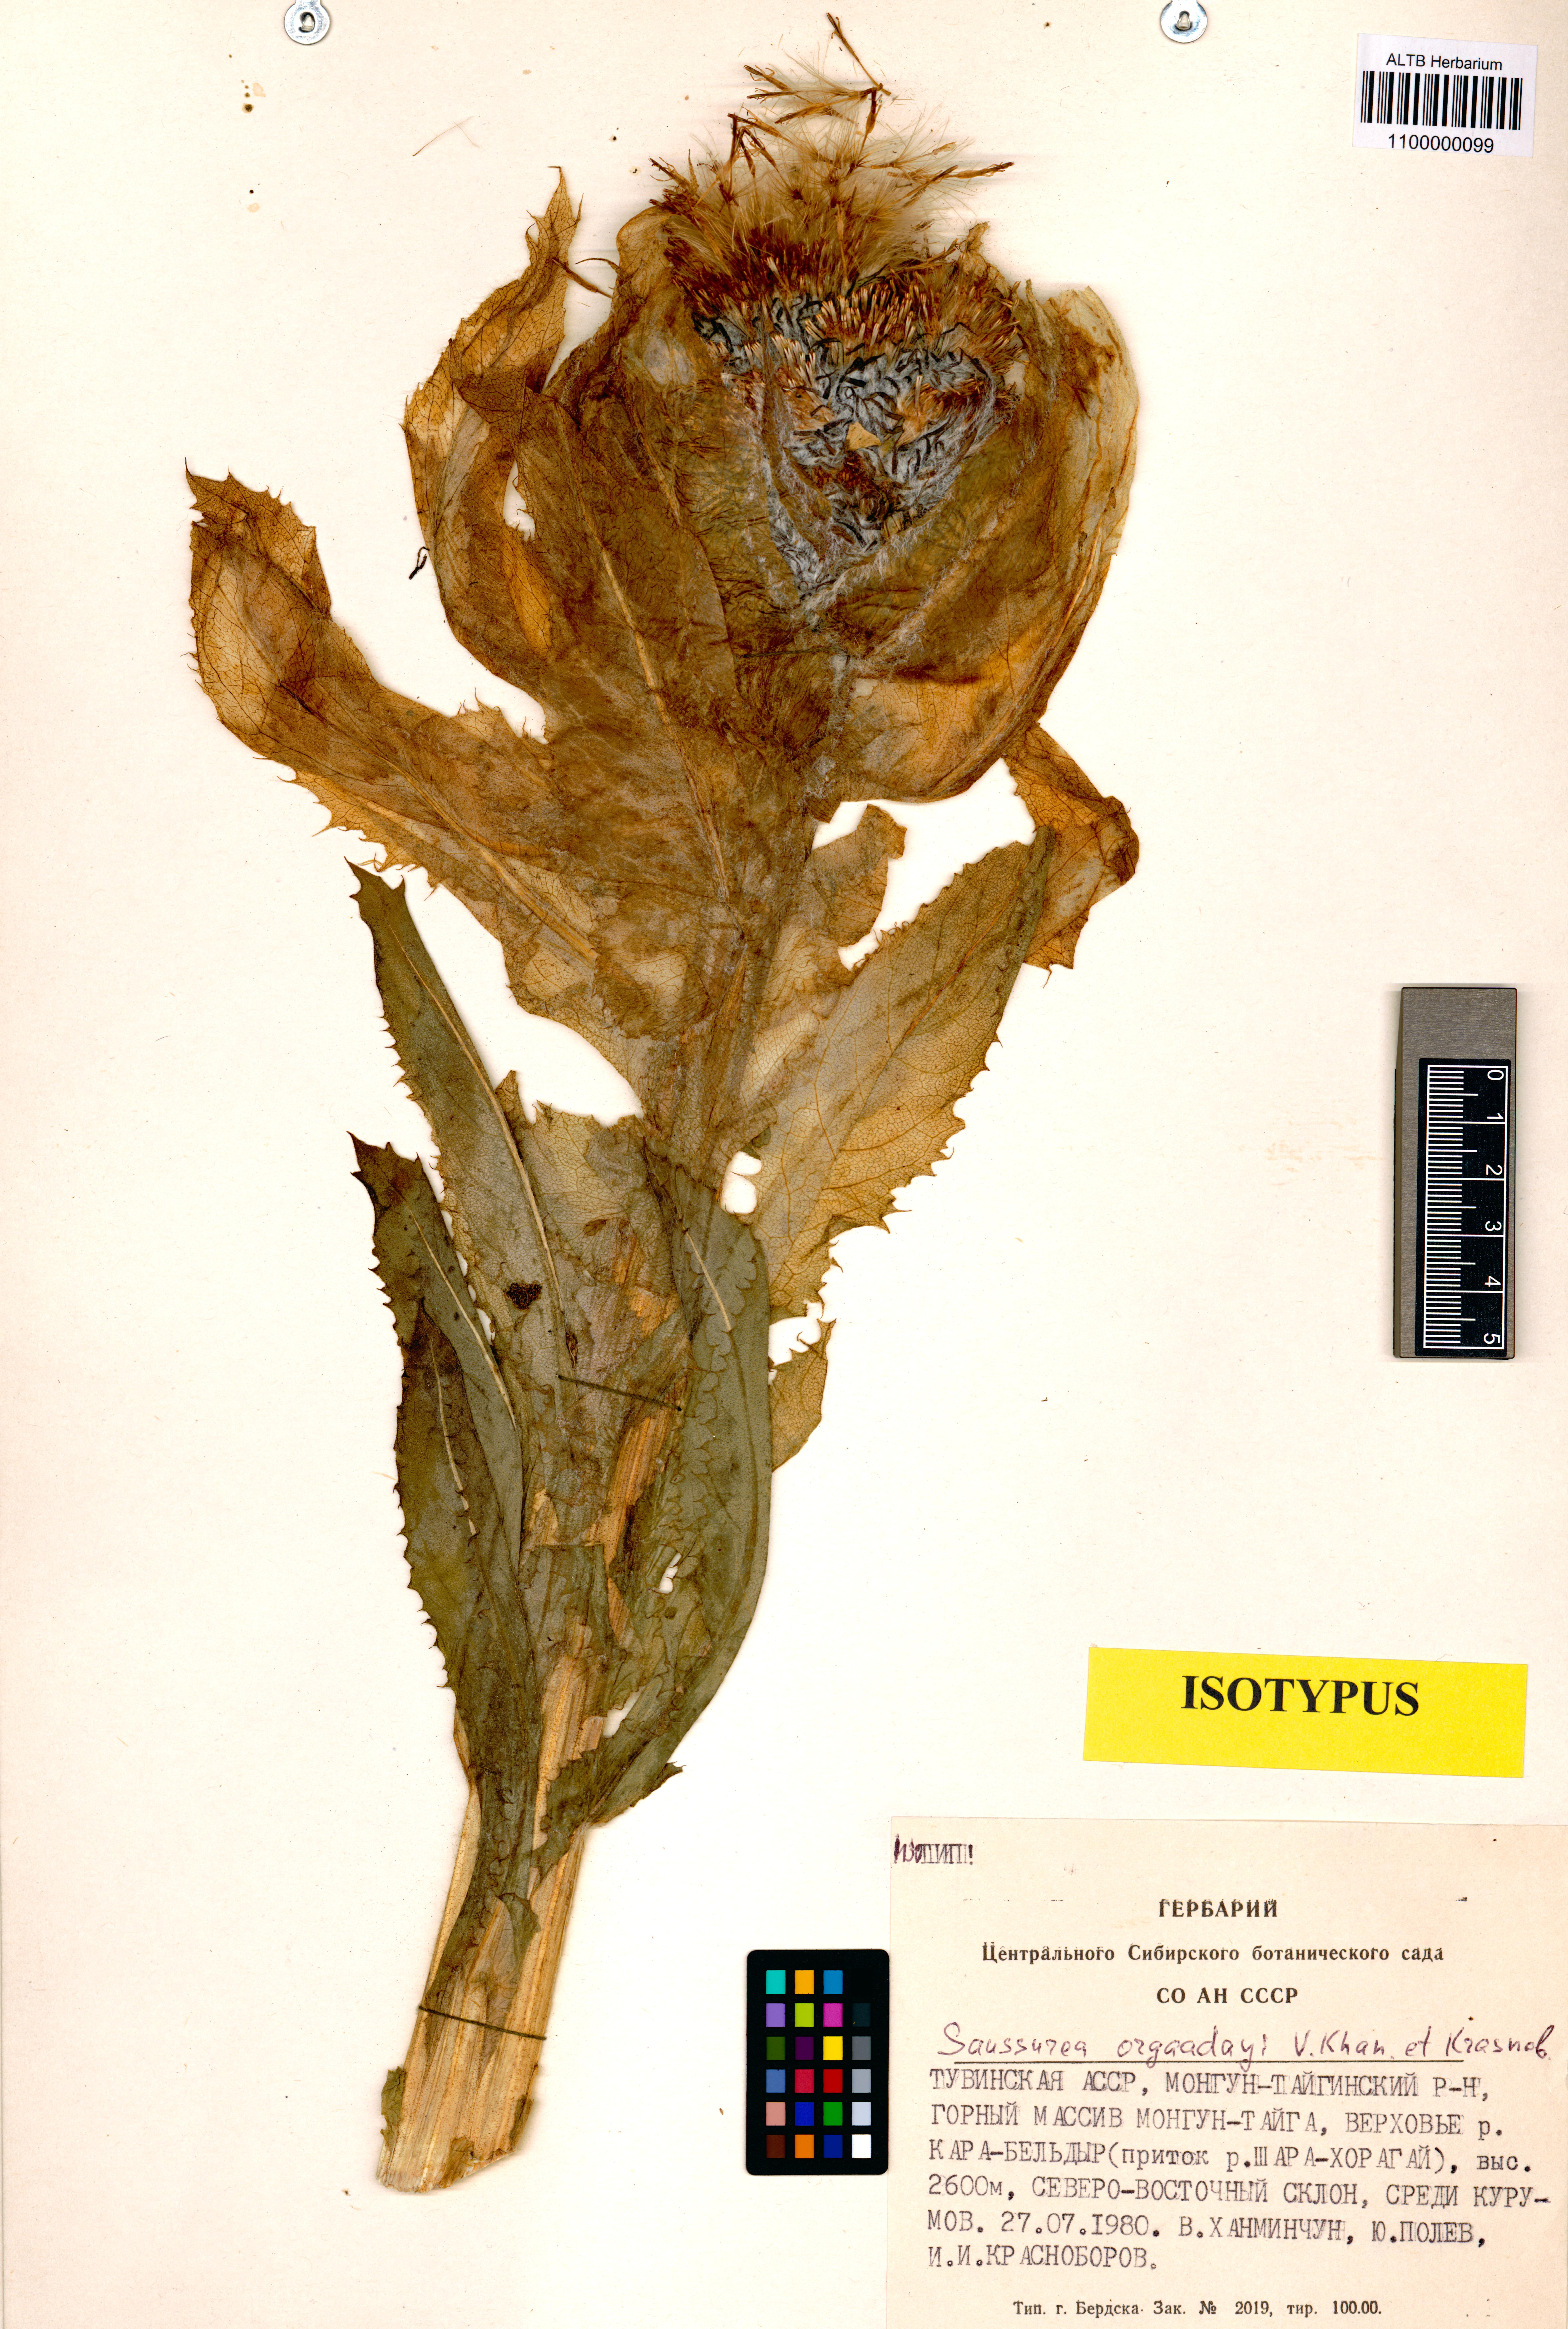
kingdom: Plantae
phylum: Tracheophyta
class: Magnoliopsida
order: Asterales
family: Asteraceae
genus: Saussurea
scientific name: Saussurea orgaadayi
